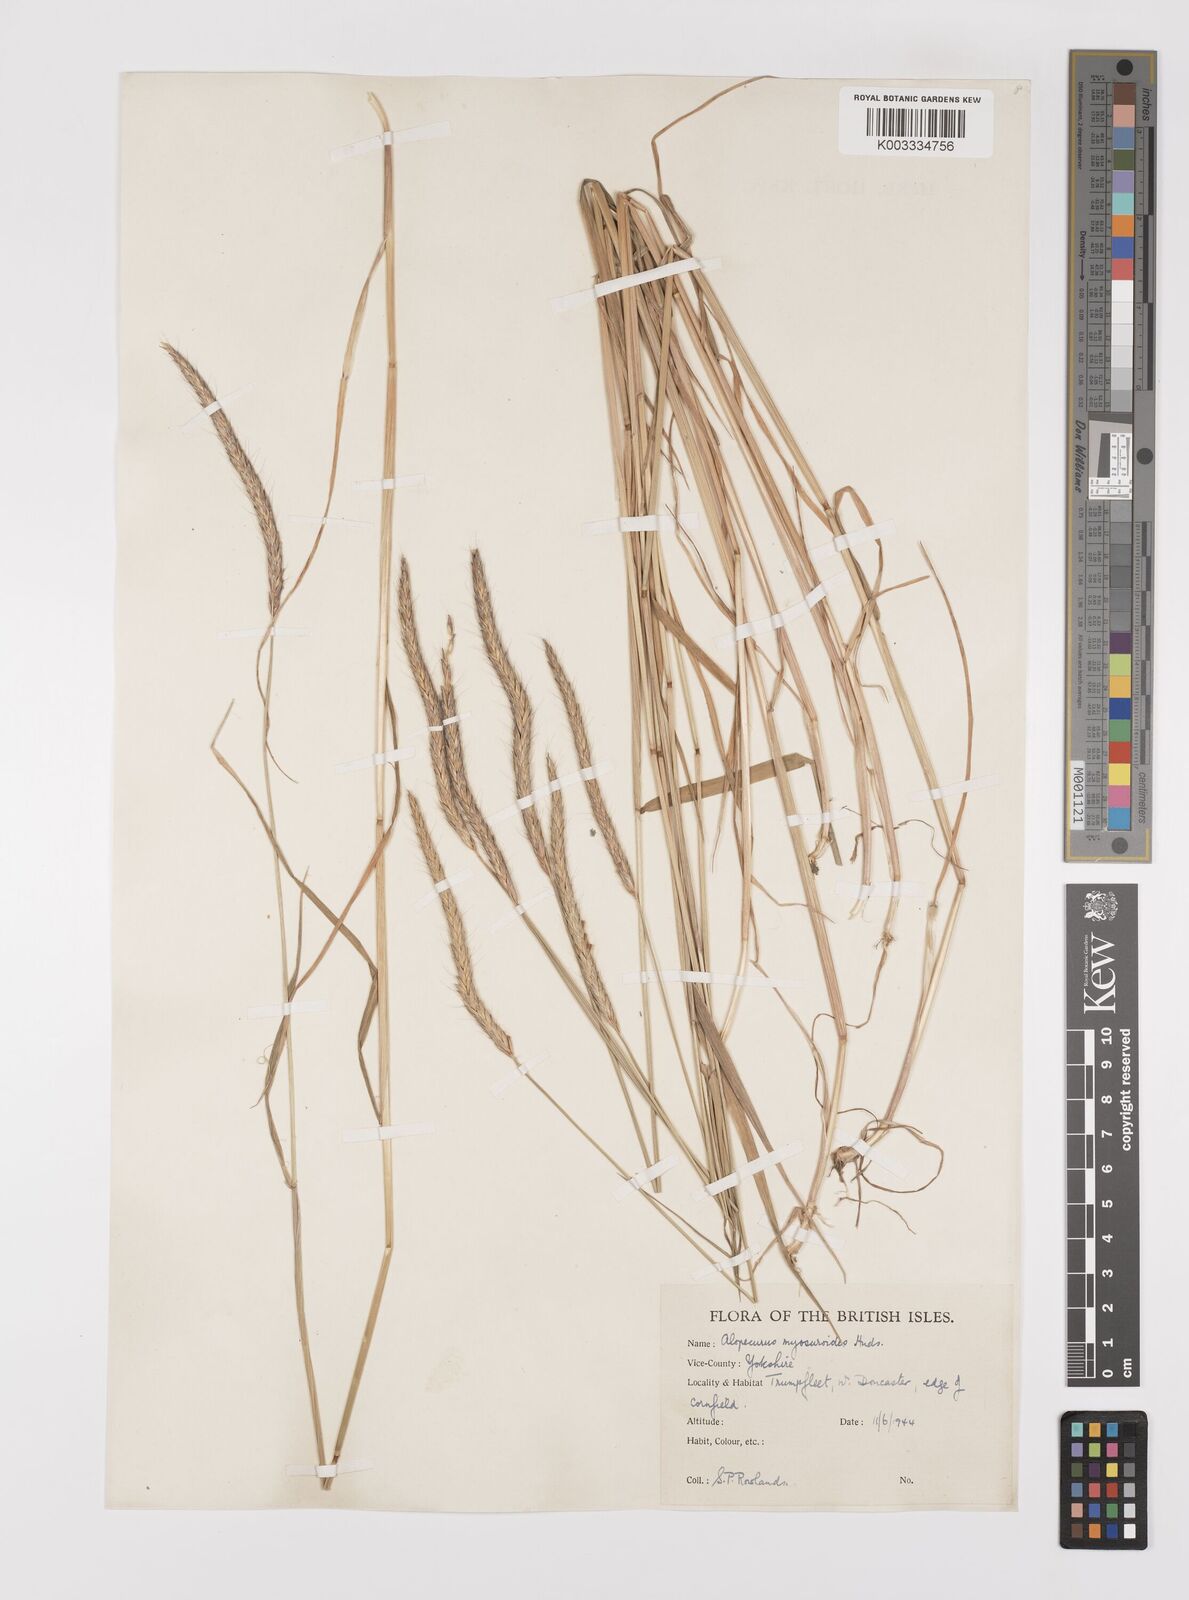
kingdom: Plantae
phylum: Tracheophyta
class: Liliopsida
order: Poales
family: Poaceae
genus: Alopecurus
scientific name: Alopecurus myosuroides
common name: Black-grass
